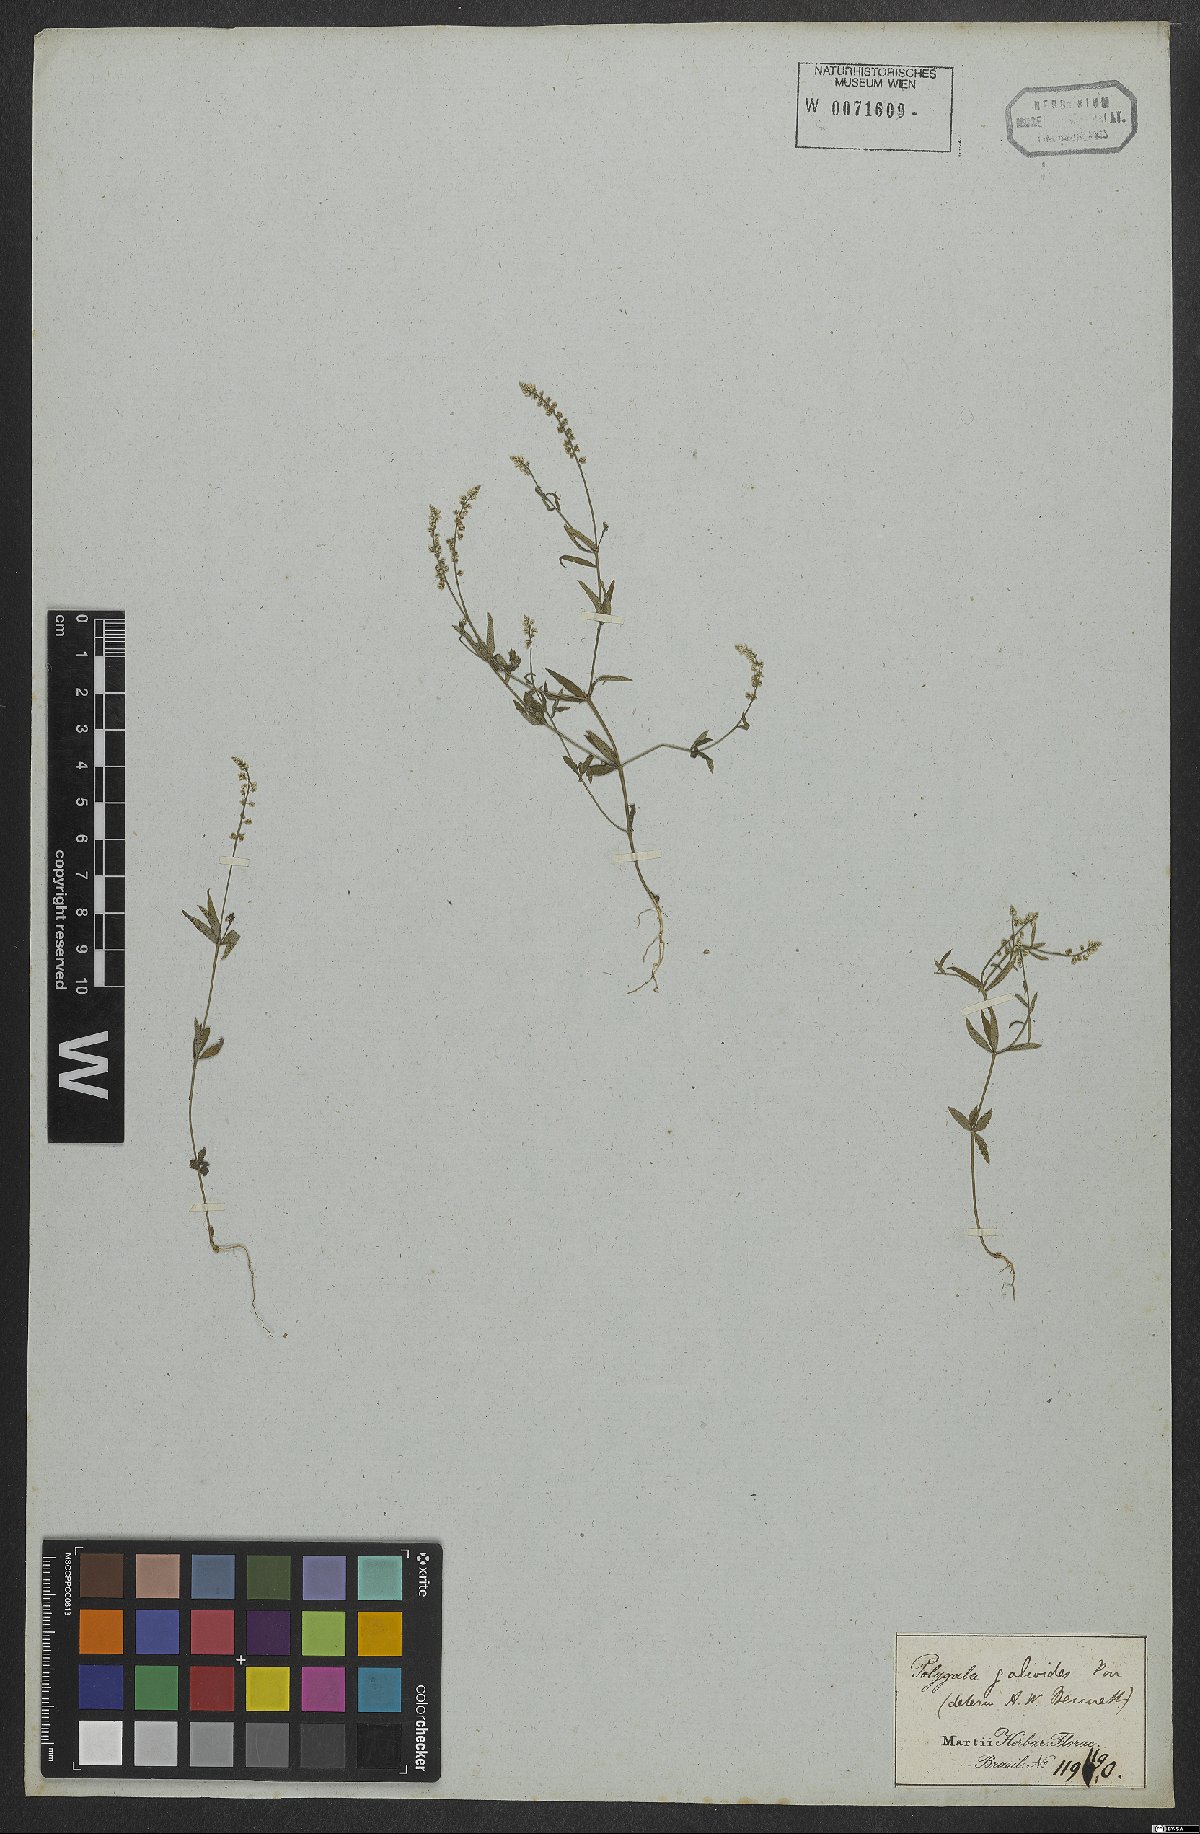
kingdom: Plantae
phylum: Tracheophyta
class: Magnoliopsida
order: Fabales
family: Polygalaceae
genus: Polygala
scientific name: Polygala galioides
